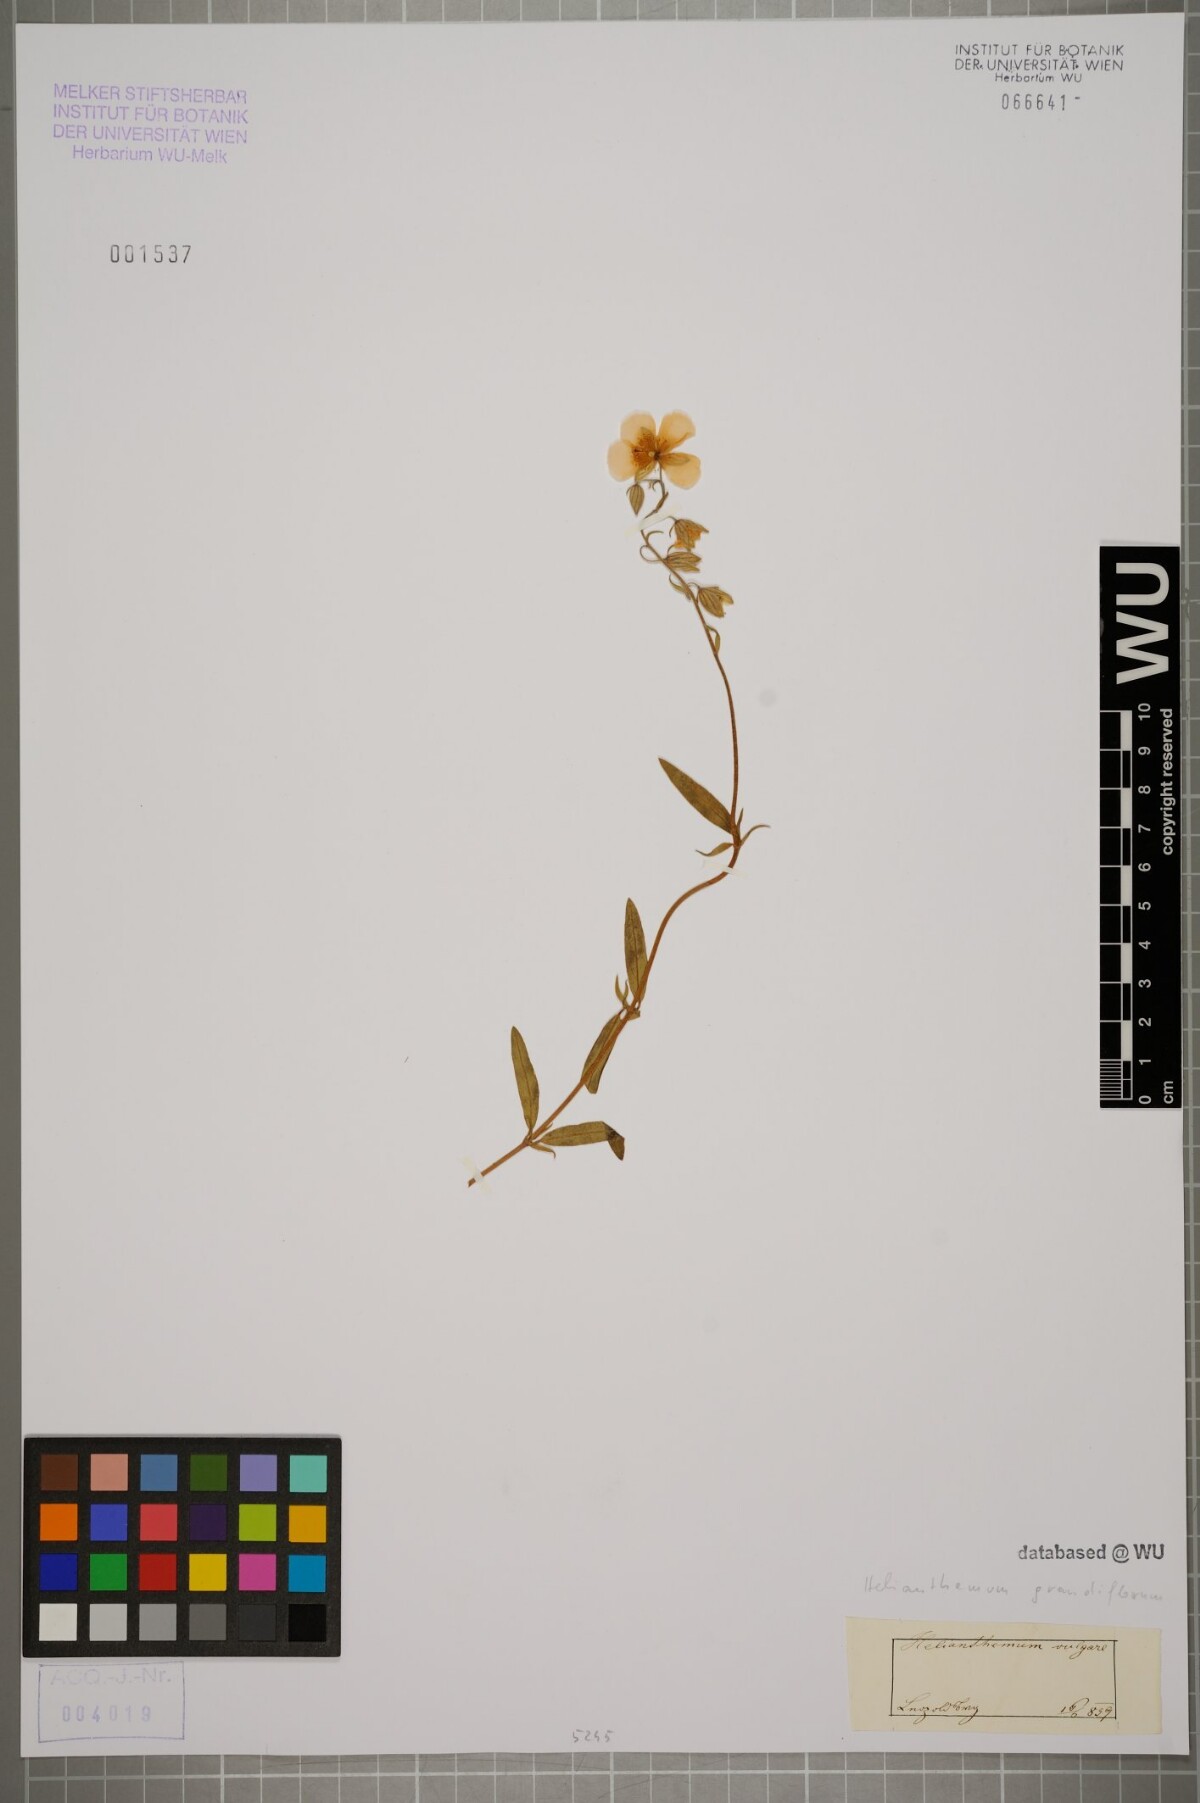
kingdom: Plantae
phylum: Tracheophyta
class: Magnoliopsida
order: Malvales
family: Cistaceae
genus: Helianthemum
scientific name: Helianthemum nummularium
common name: Common rock-rose
